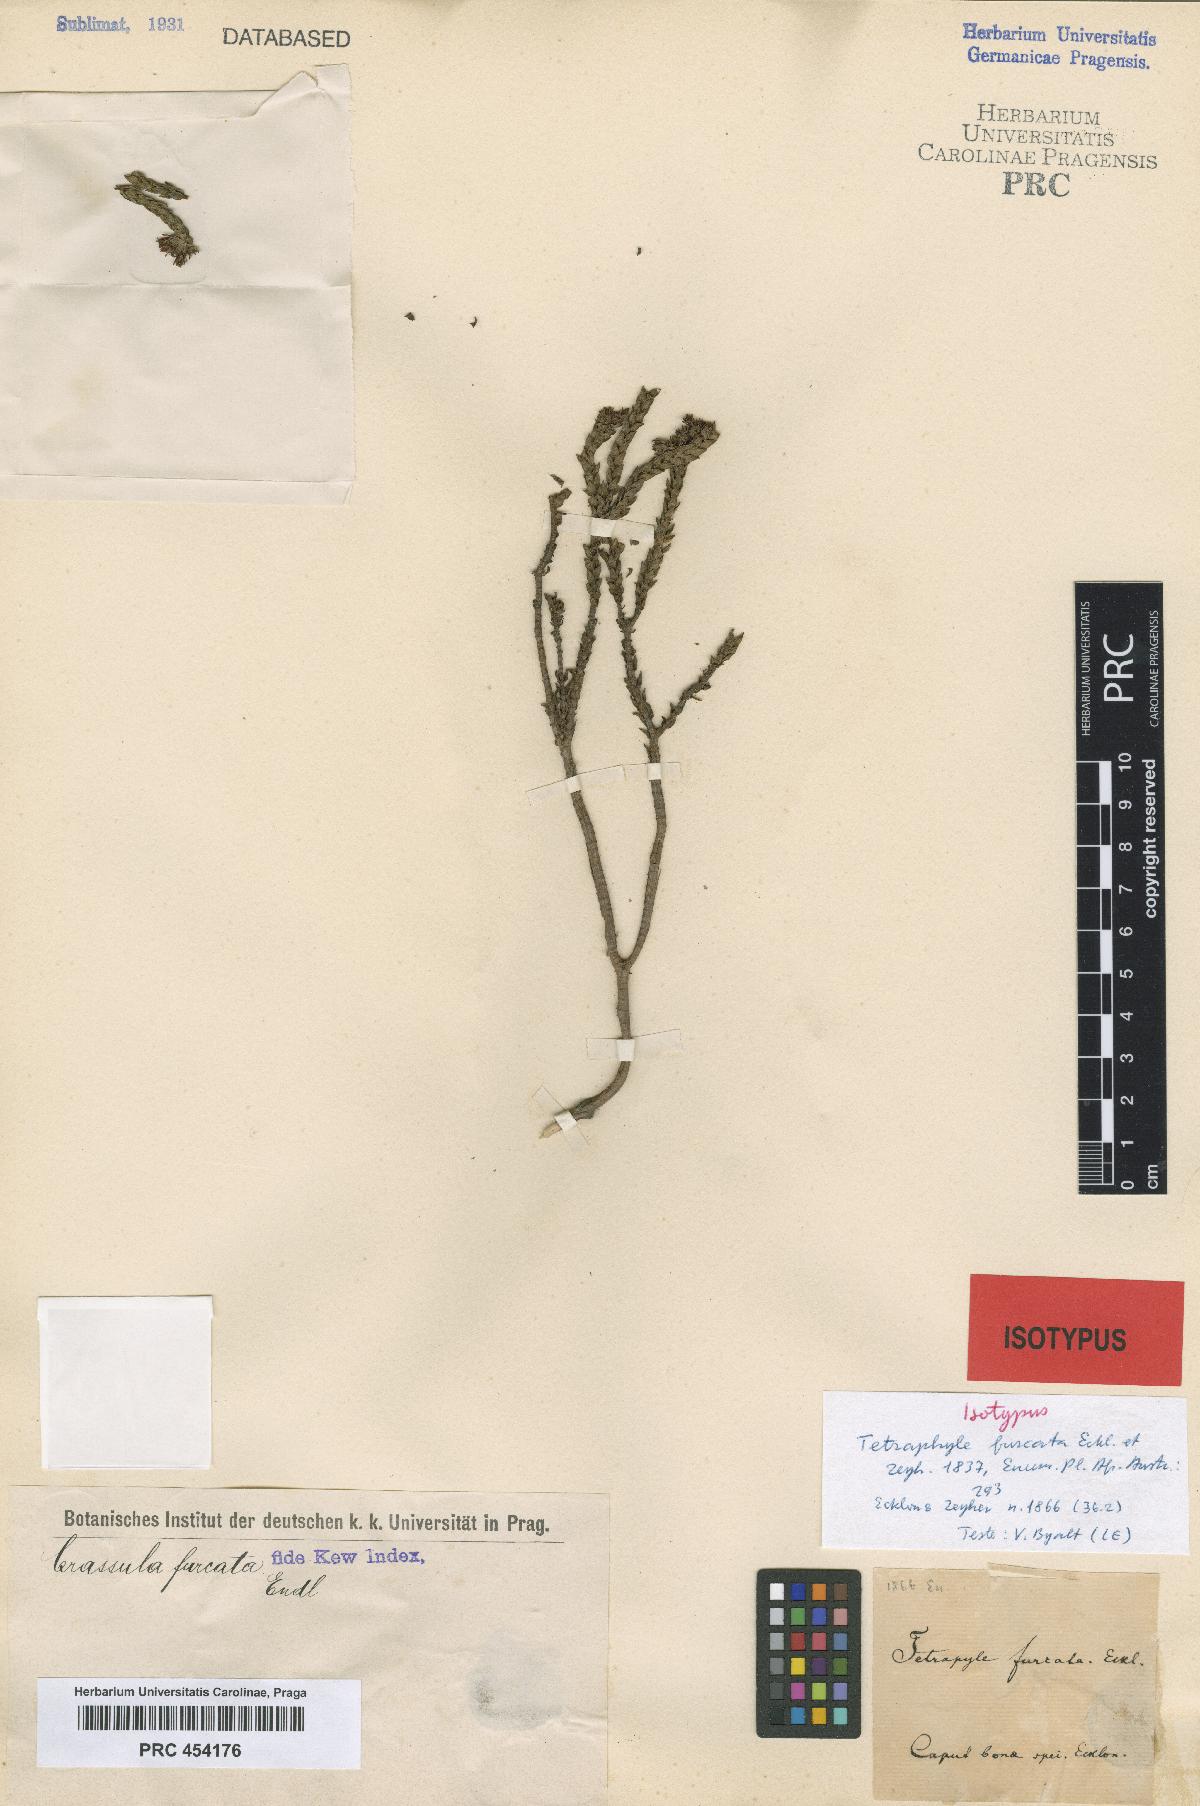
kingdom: Plantae
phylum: Tracheophyta
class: Magnoliopsida
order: Saxifragales
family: Crassulaceae
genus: Crassula
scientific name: Crassula ericoides
